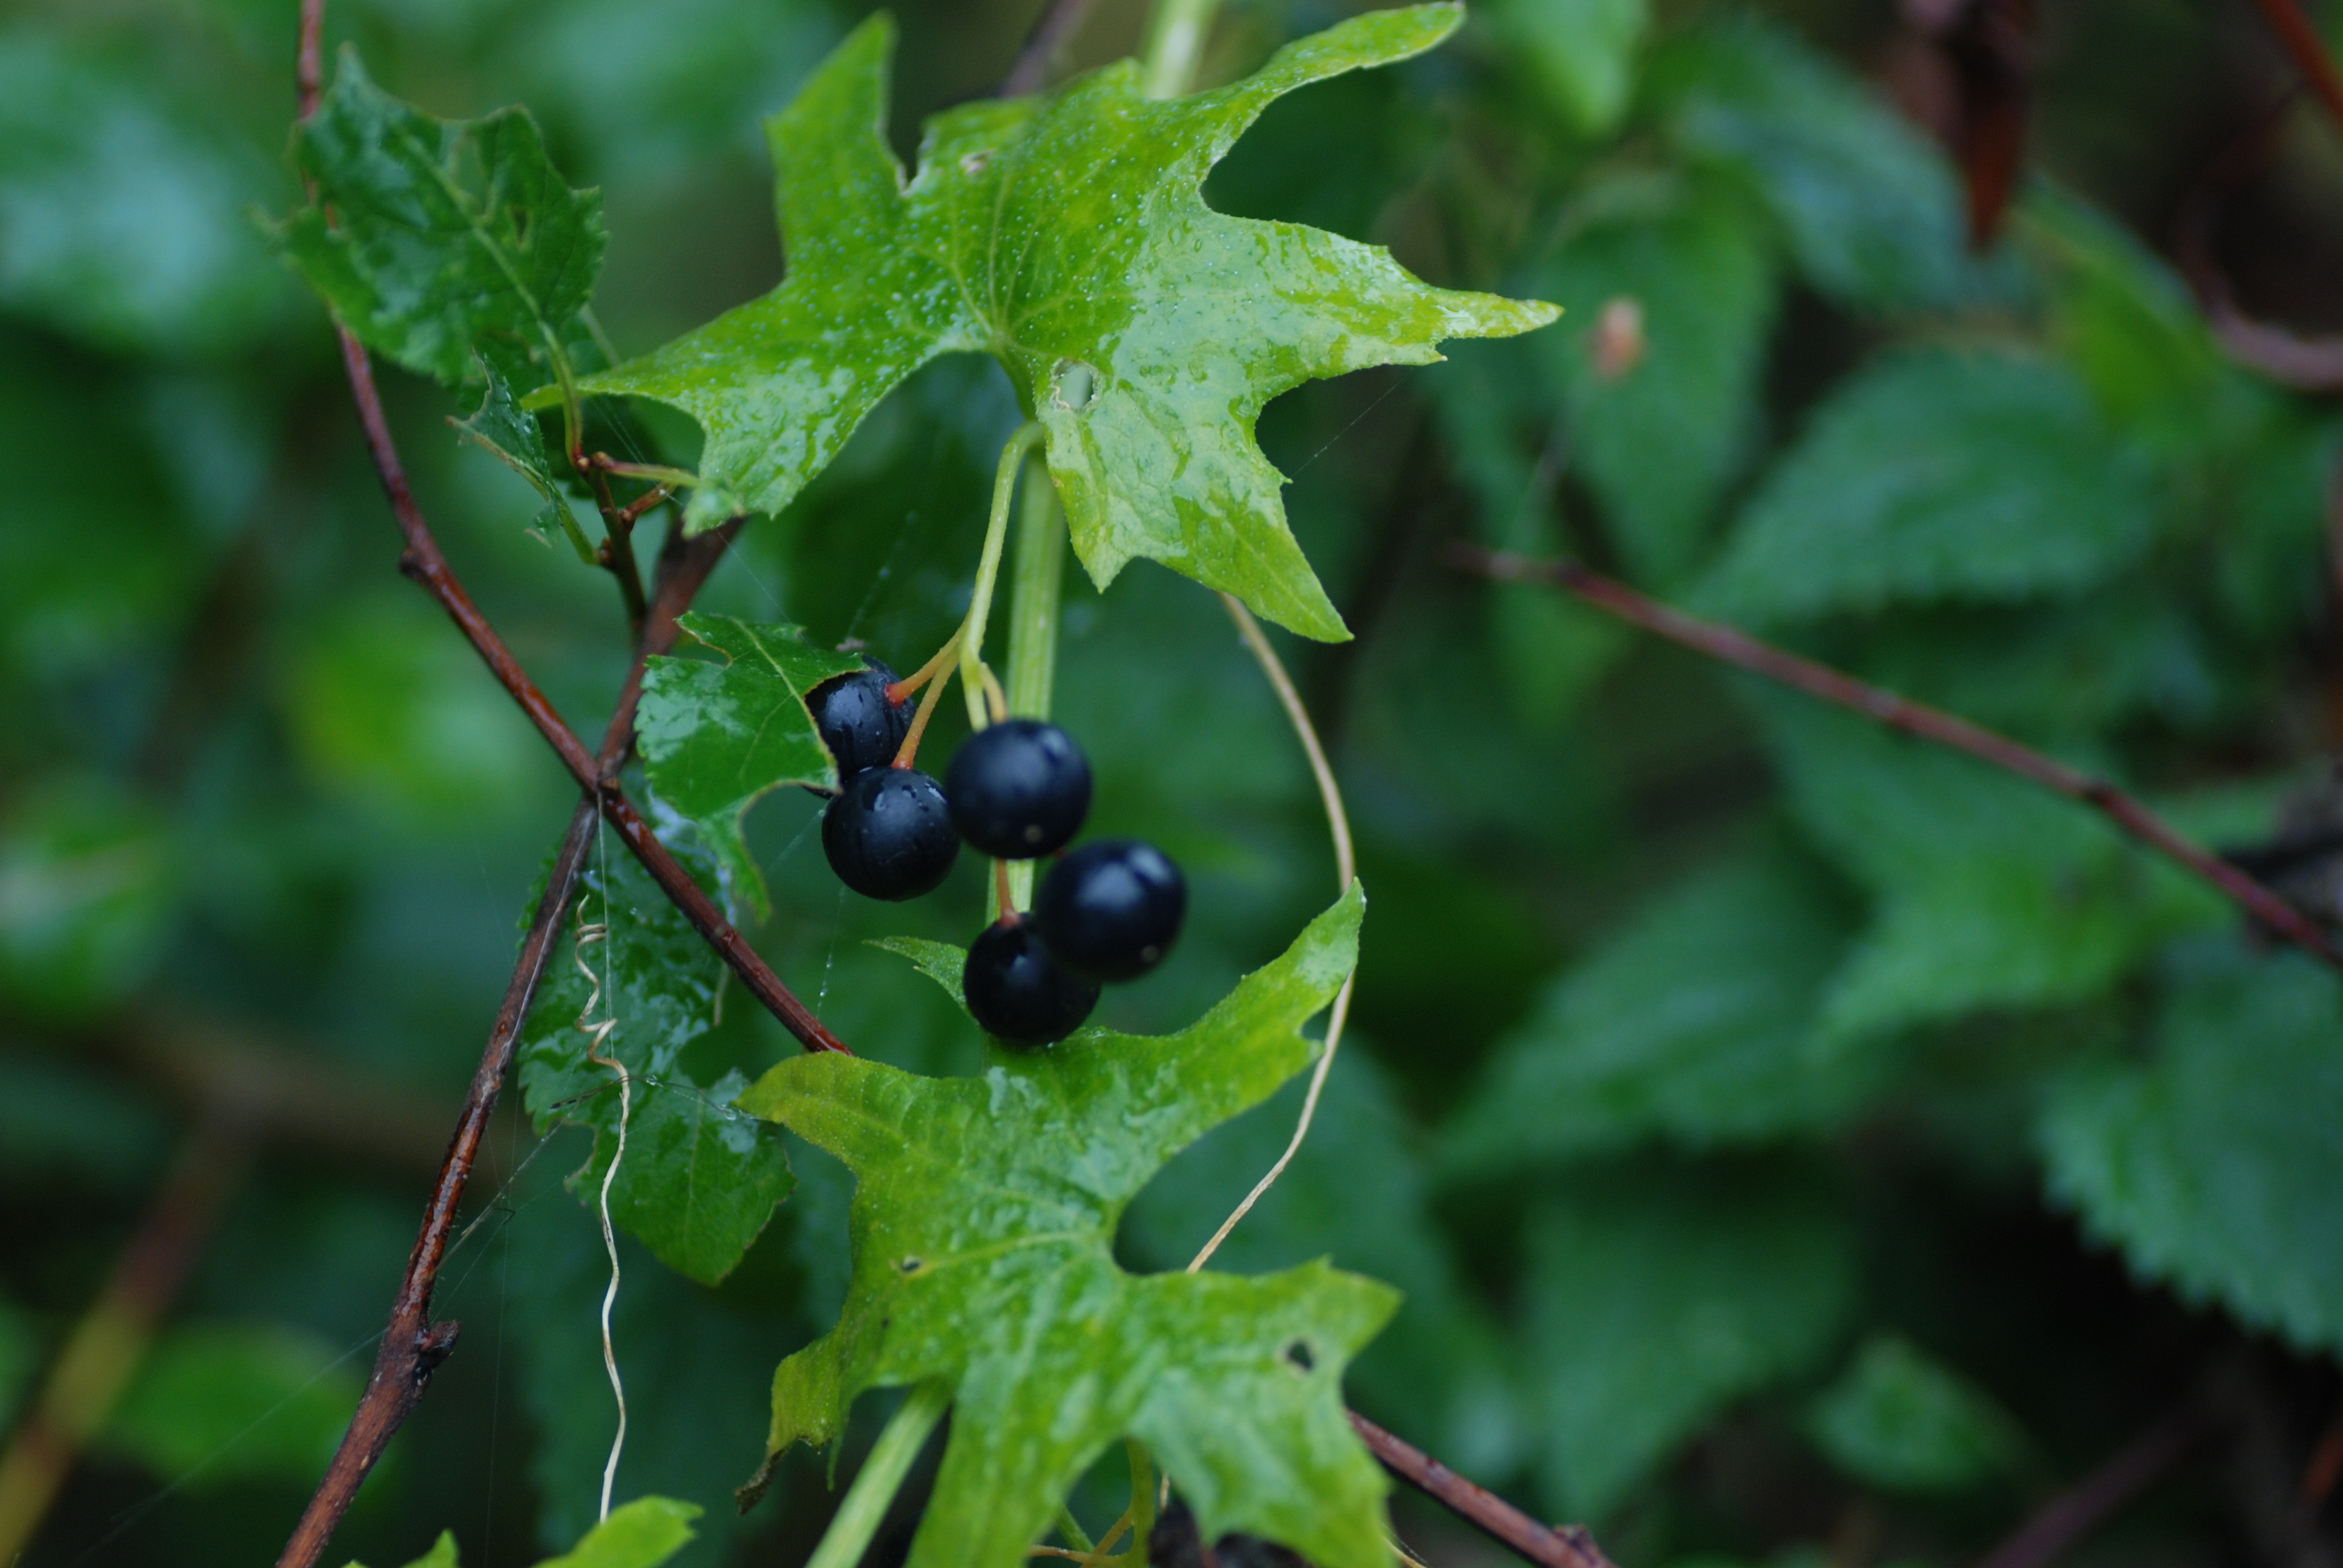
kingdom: Plantae
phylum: Tracheophyta
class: Magnoliopsida
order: Cucurbitales
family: Cucurbitaceae
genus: Bryonia
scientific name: Bryonia alba
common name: White bryony
